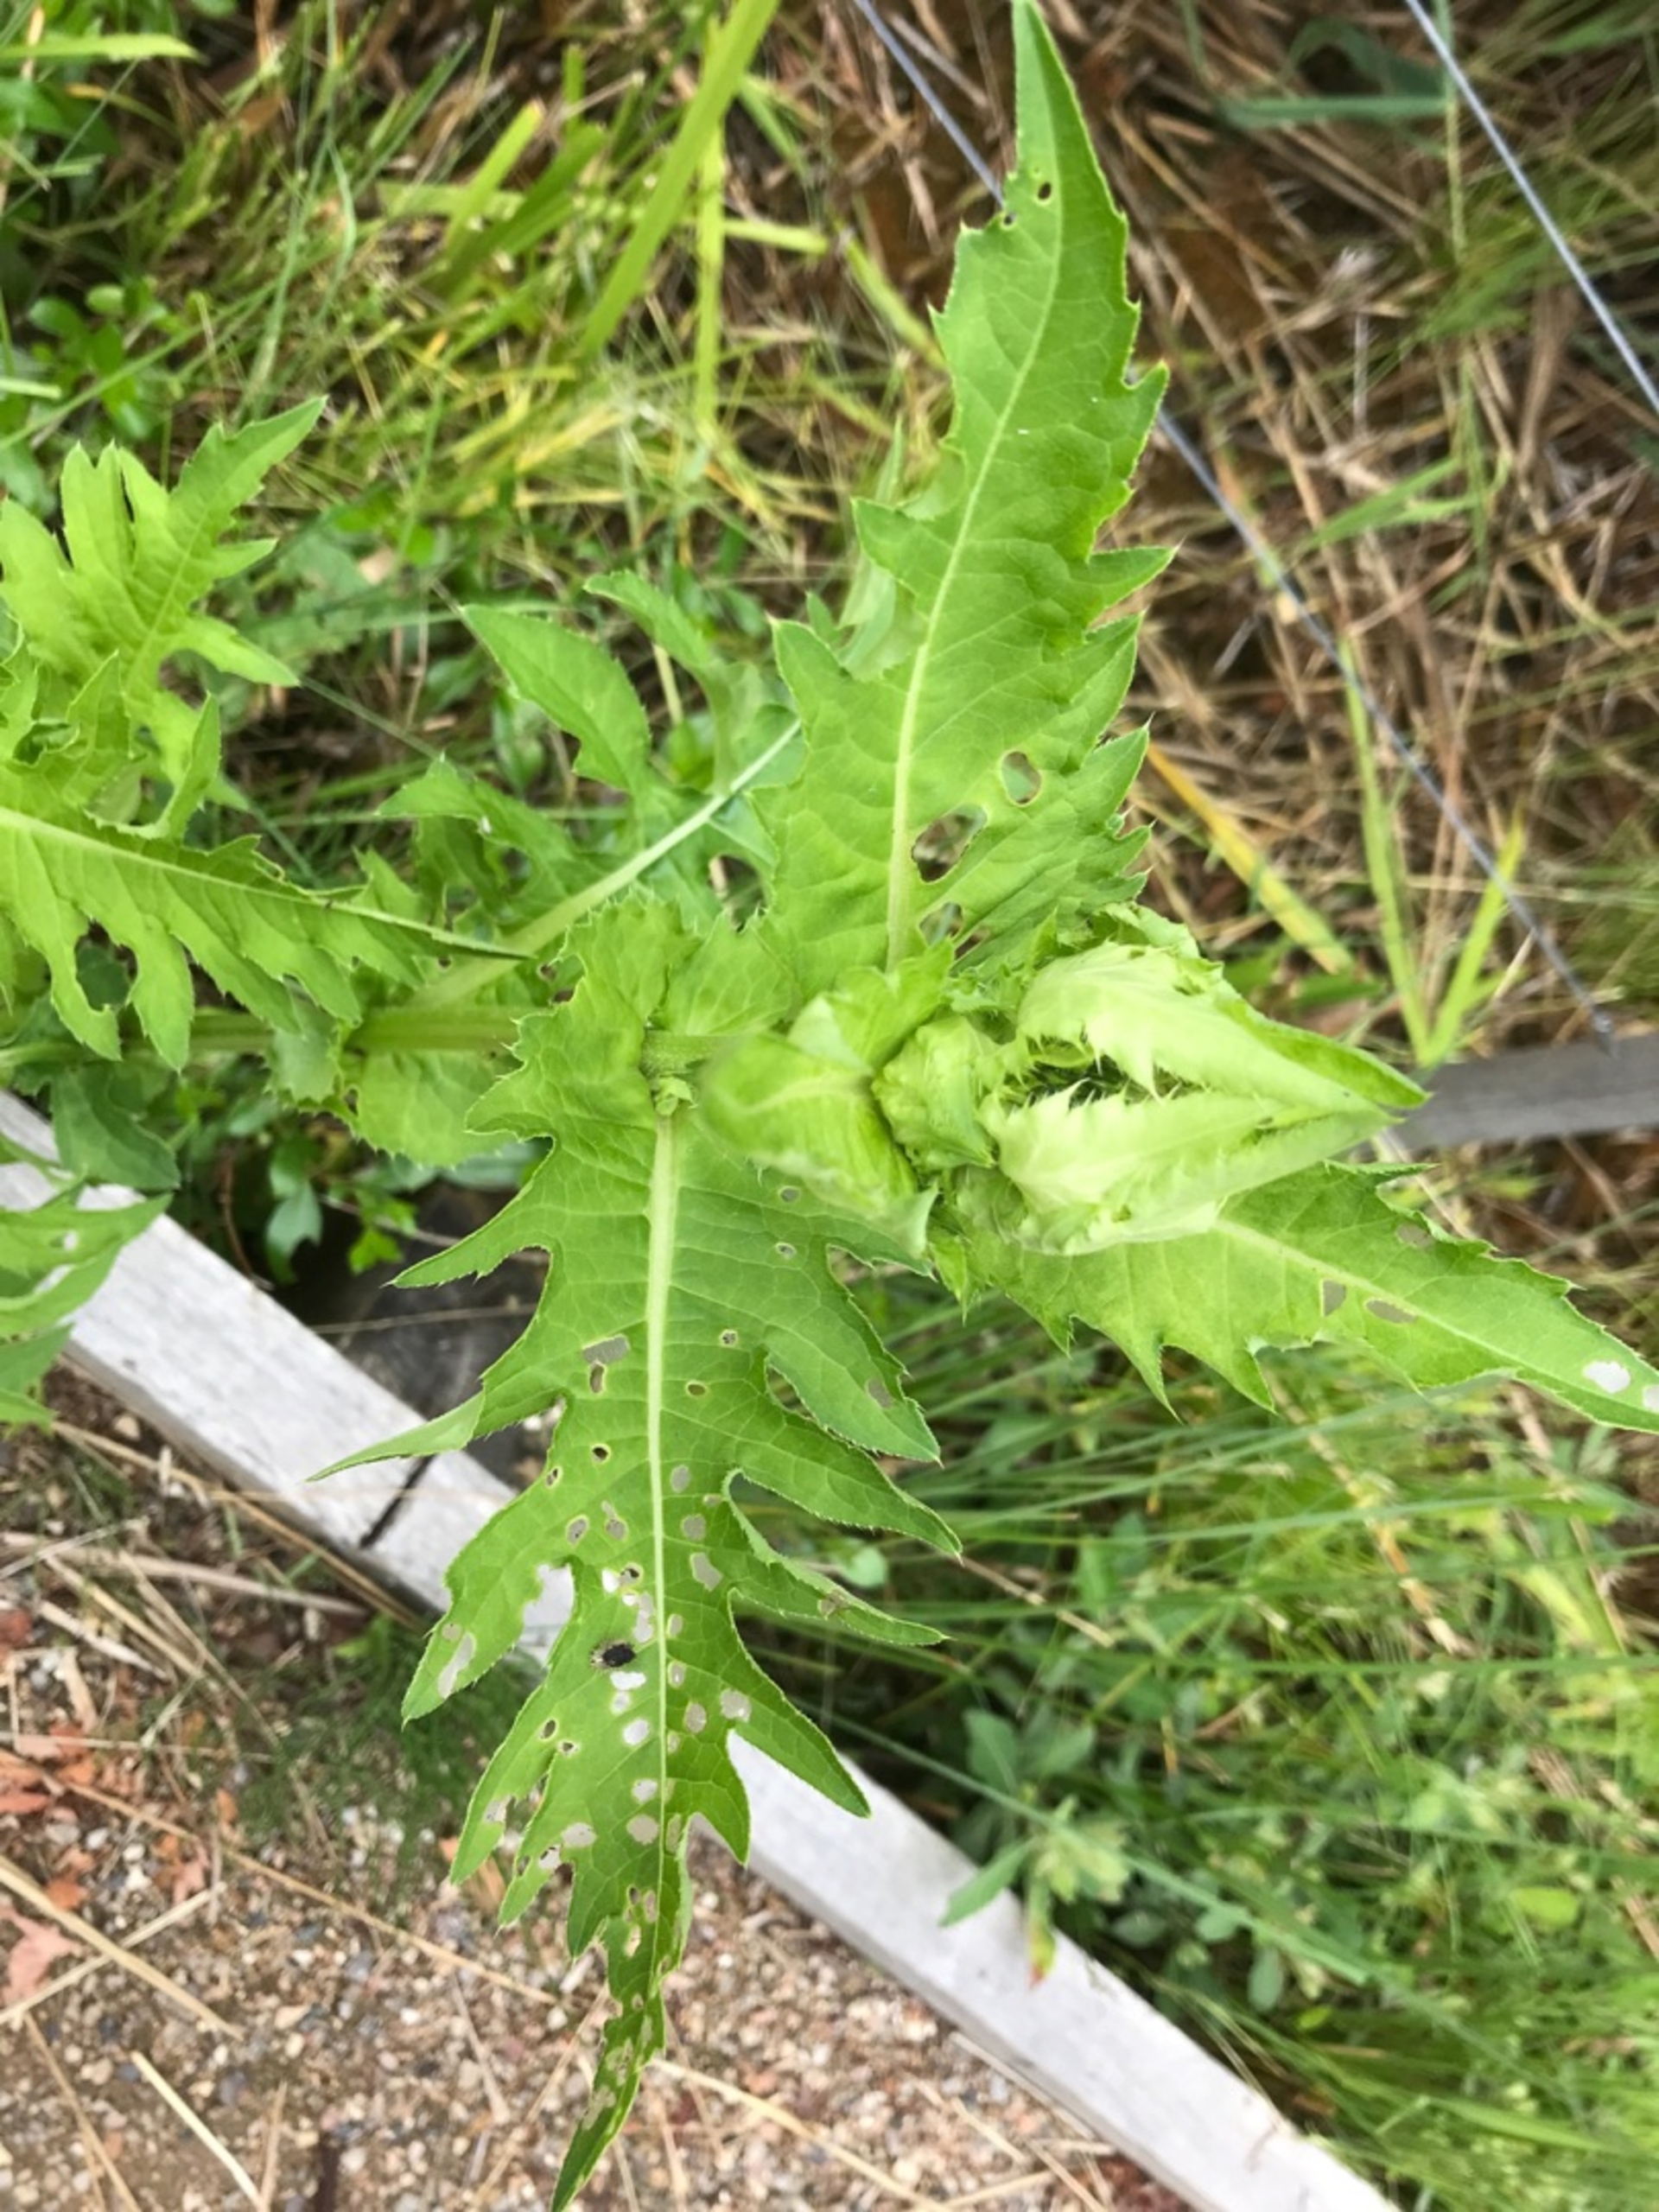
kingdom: Plantae
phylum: Tracheophyta
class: Magnoliopsida
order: Asterales
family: Asteraceae
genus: Cirsium
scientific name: Cirsium oleraceum
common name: Kål-tidsel
